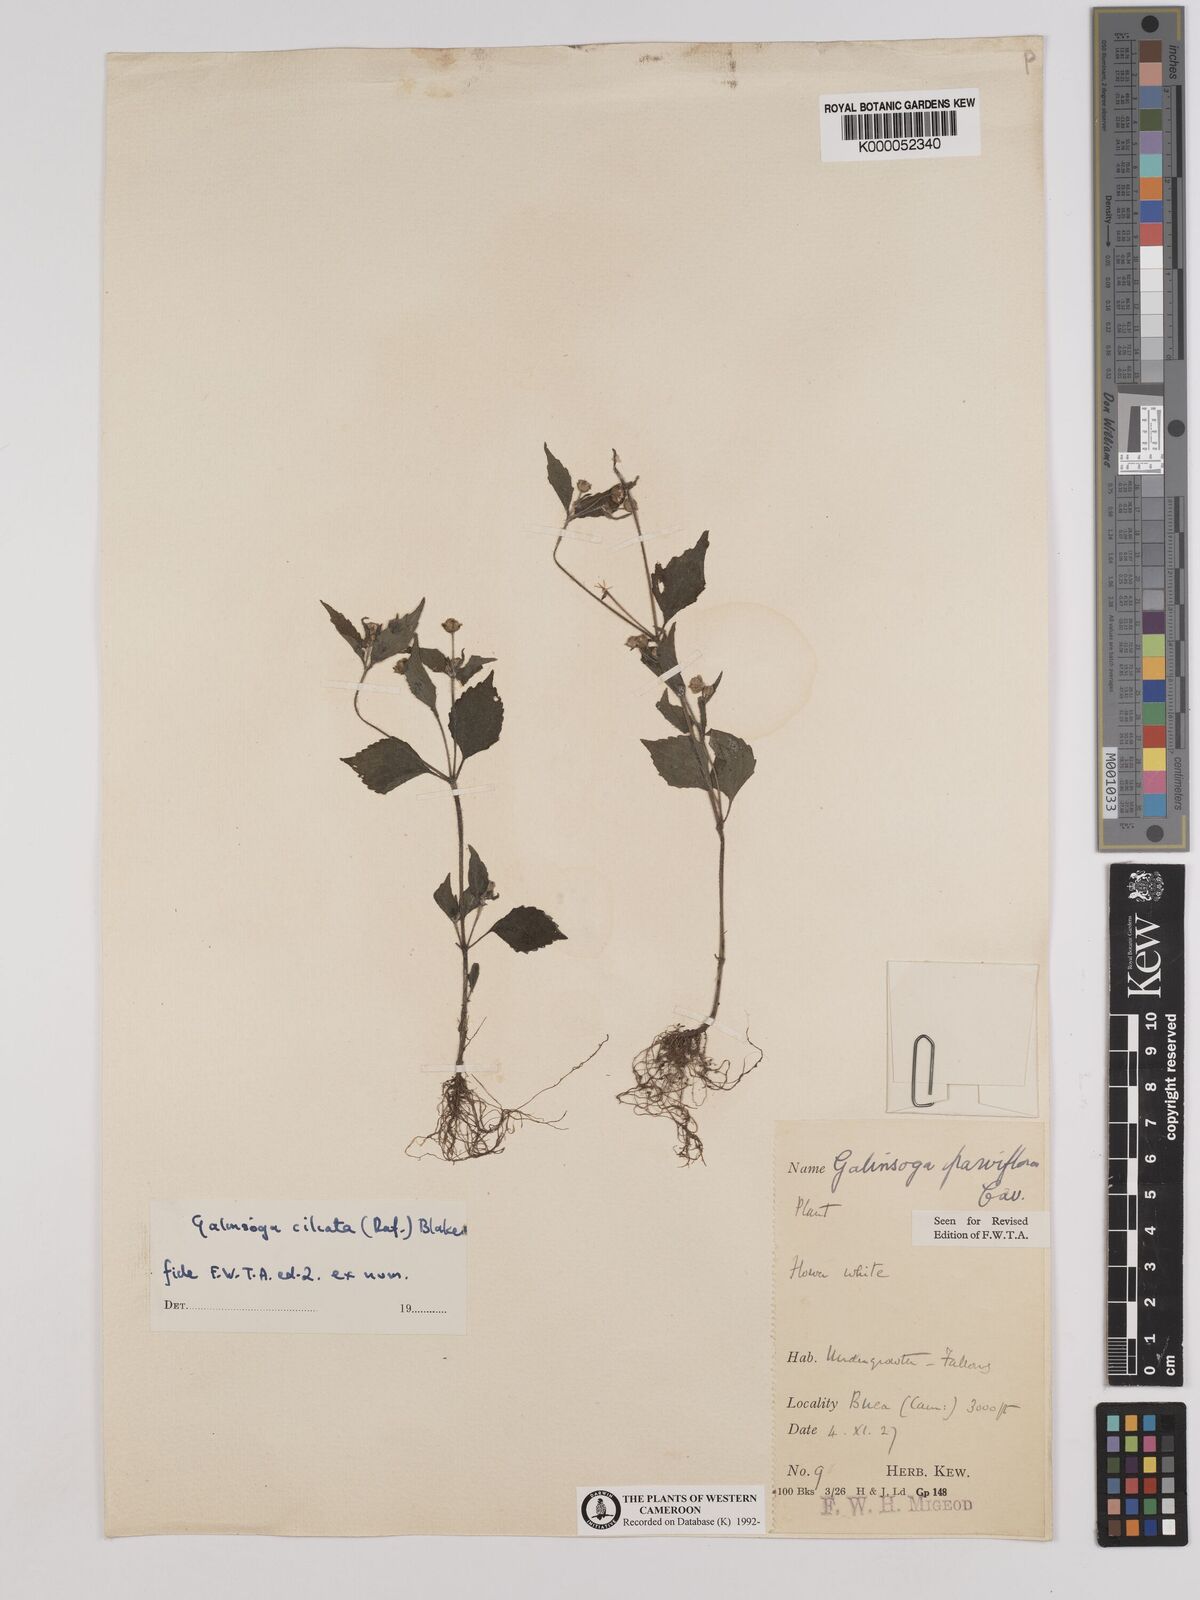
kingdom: Plantae
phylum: Tracheophyta
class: Magnoliopsida
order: Asterales
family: Asteraceae
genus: Galinsoga
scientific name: Galinsoga quadriradiata
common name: Shaggy soldier
